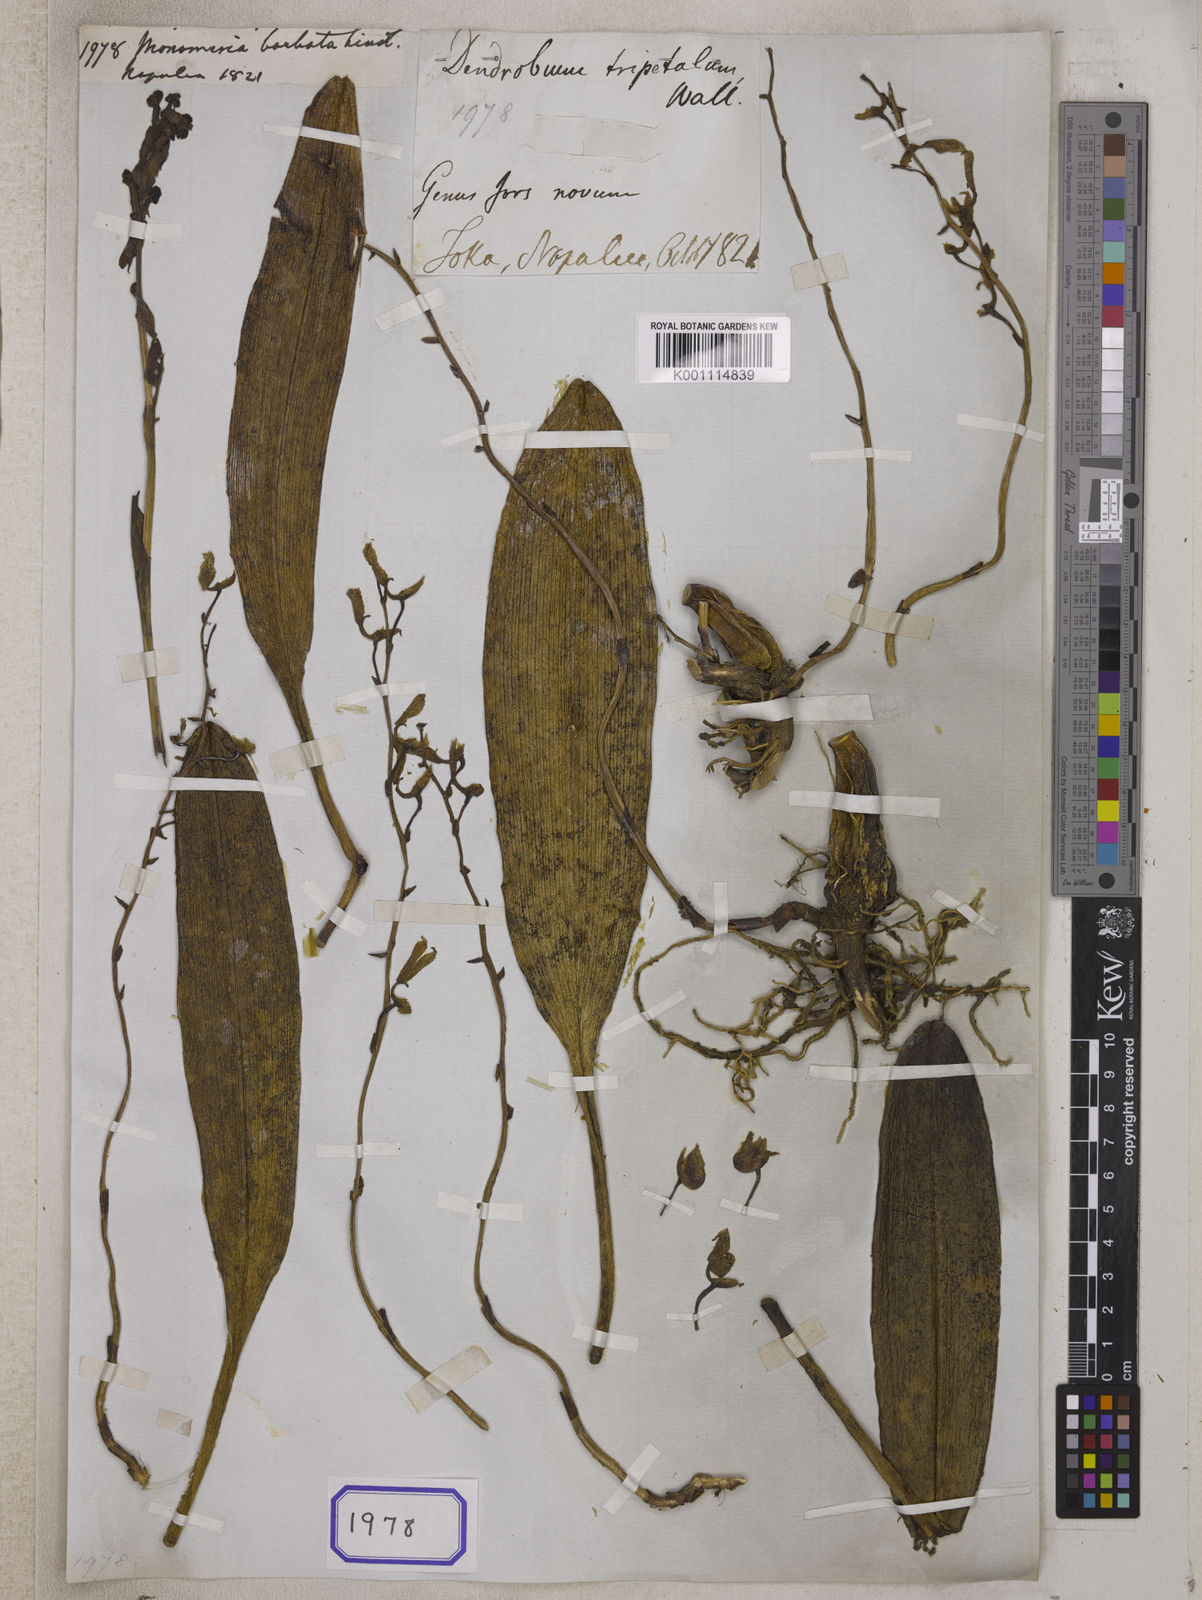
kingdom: Plantae
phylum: Tracheophyta
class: Liliopsida
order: Asparagales
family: Orchidaceae
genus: Bulbophyllum
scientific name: Bulbophyllum crabro
